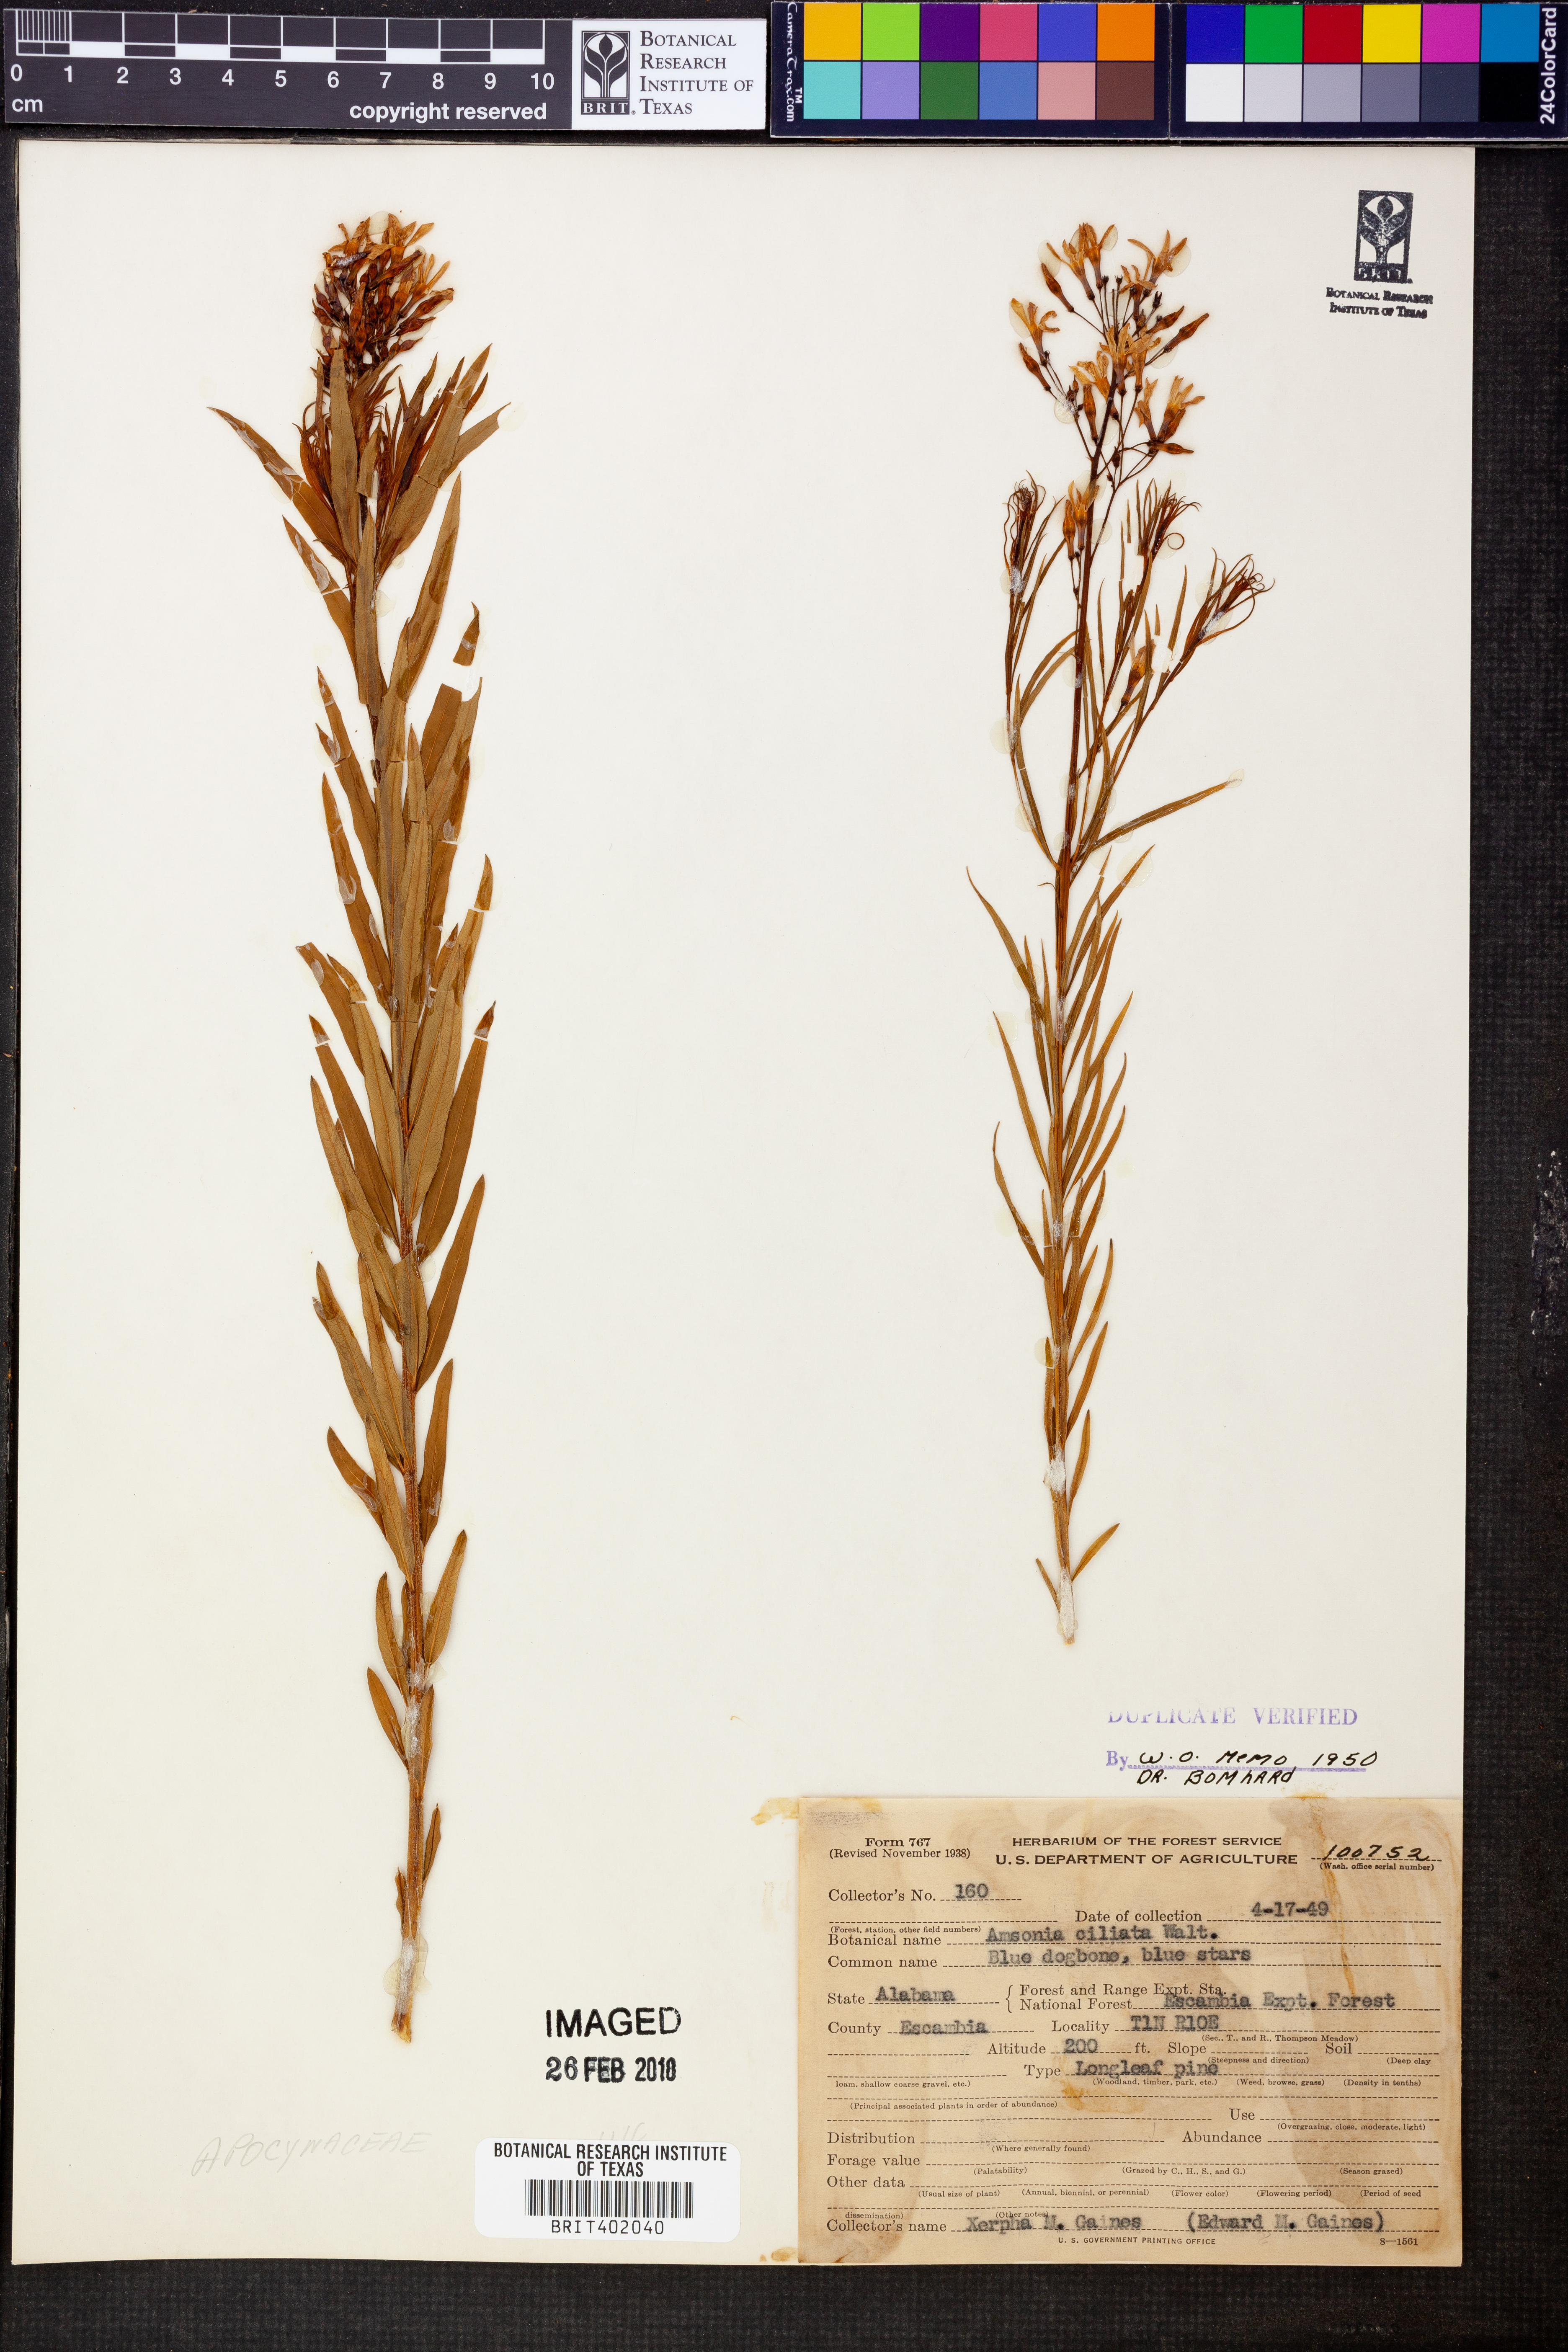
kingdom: Plantae
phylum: Tracheophyta
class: Magnoliopsida
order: Gentianales
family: Apocynaceae
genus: Amsonia
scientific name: Amsonia ciliata
